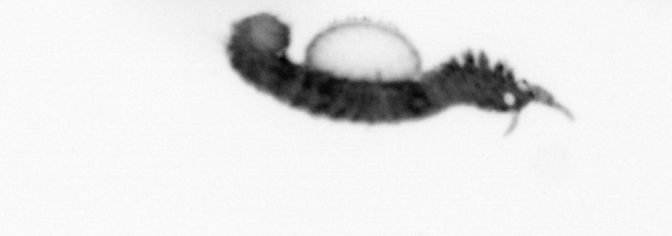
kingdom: Animalia
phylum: Annelida
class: Polychaeta
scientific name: Polychaeta
